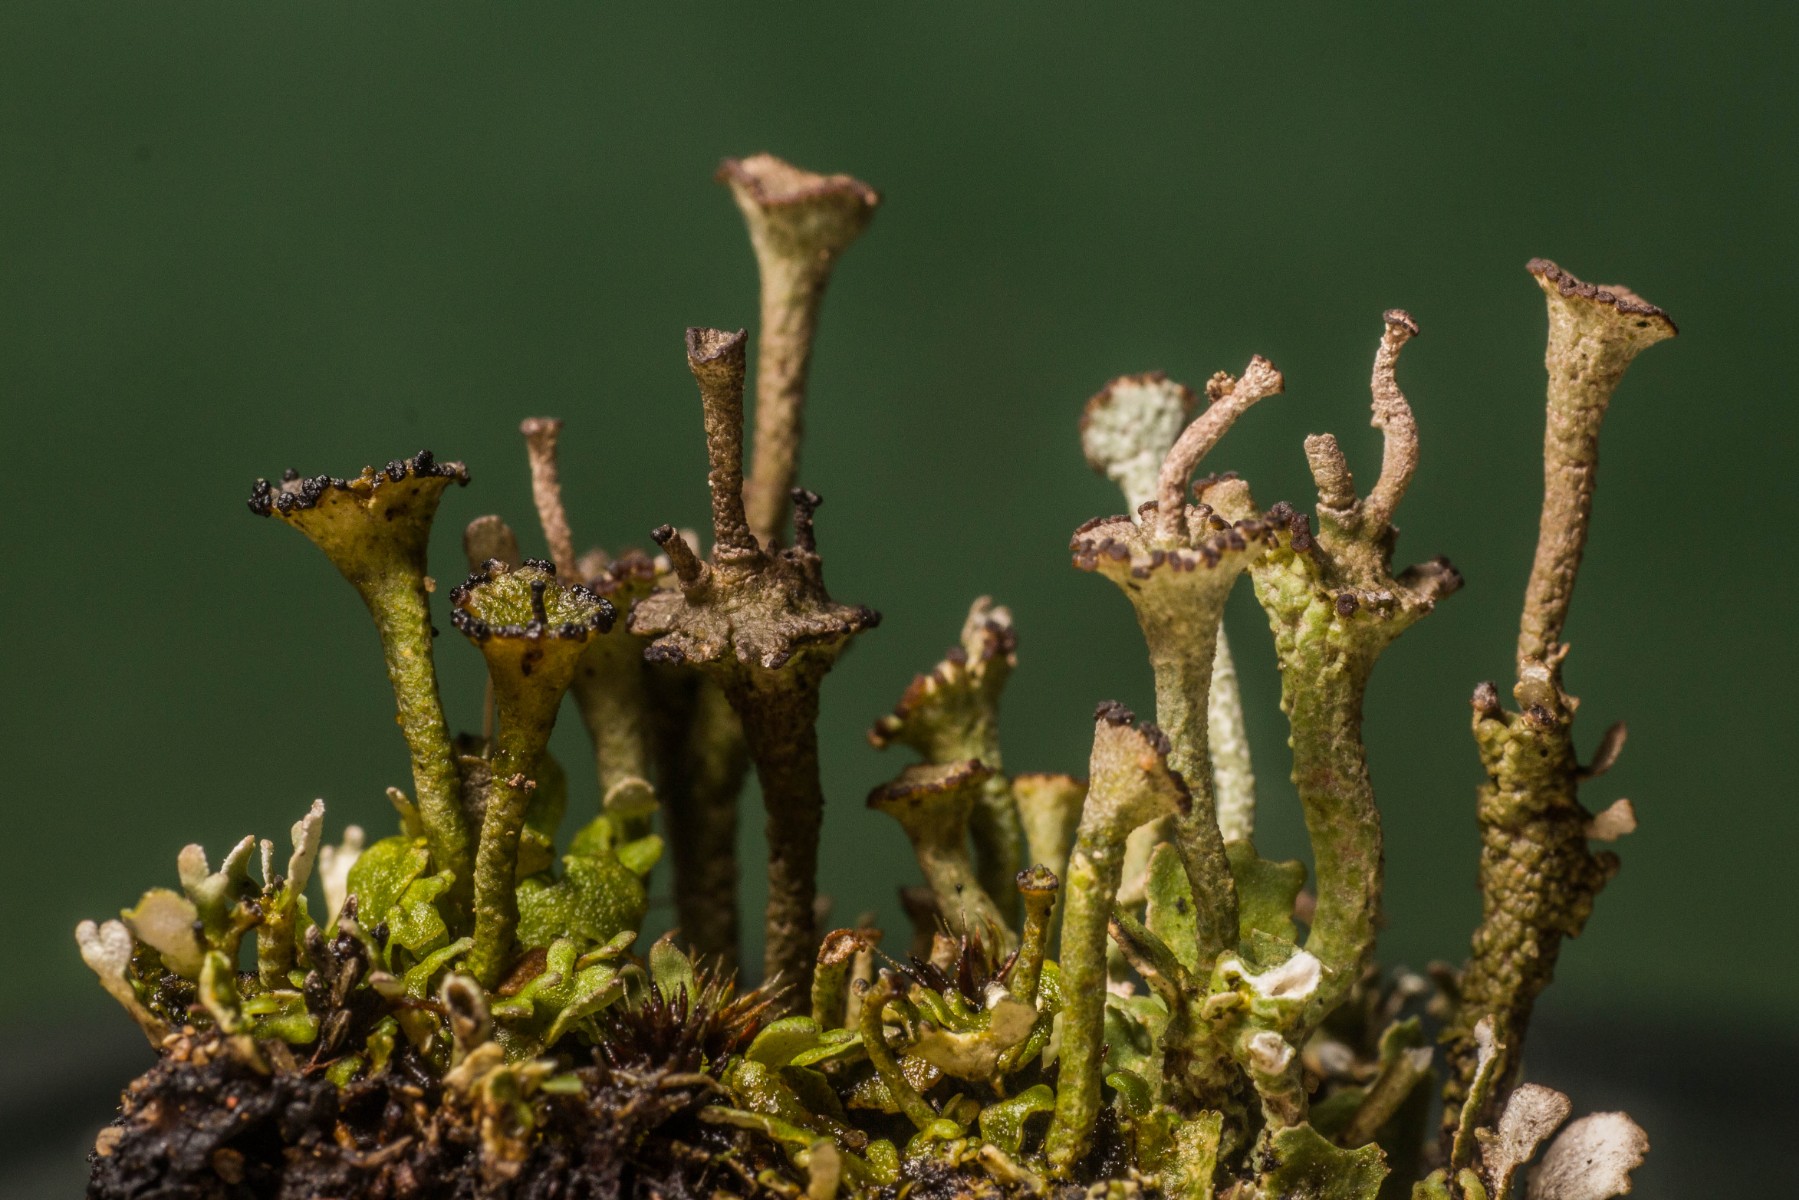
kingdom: Fungi
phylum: Ascomycota
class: Lecanoromycetes
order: Lecanorales
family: Cladoniaceae
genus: Cladonia
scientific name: Cladonia cervicornis
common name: tue-bægerlav
